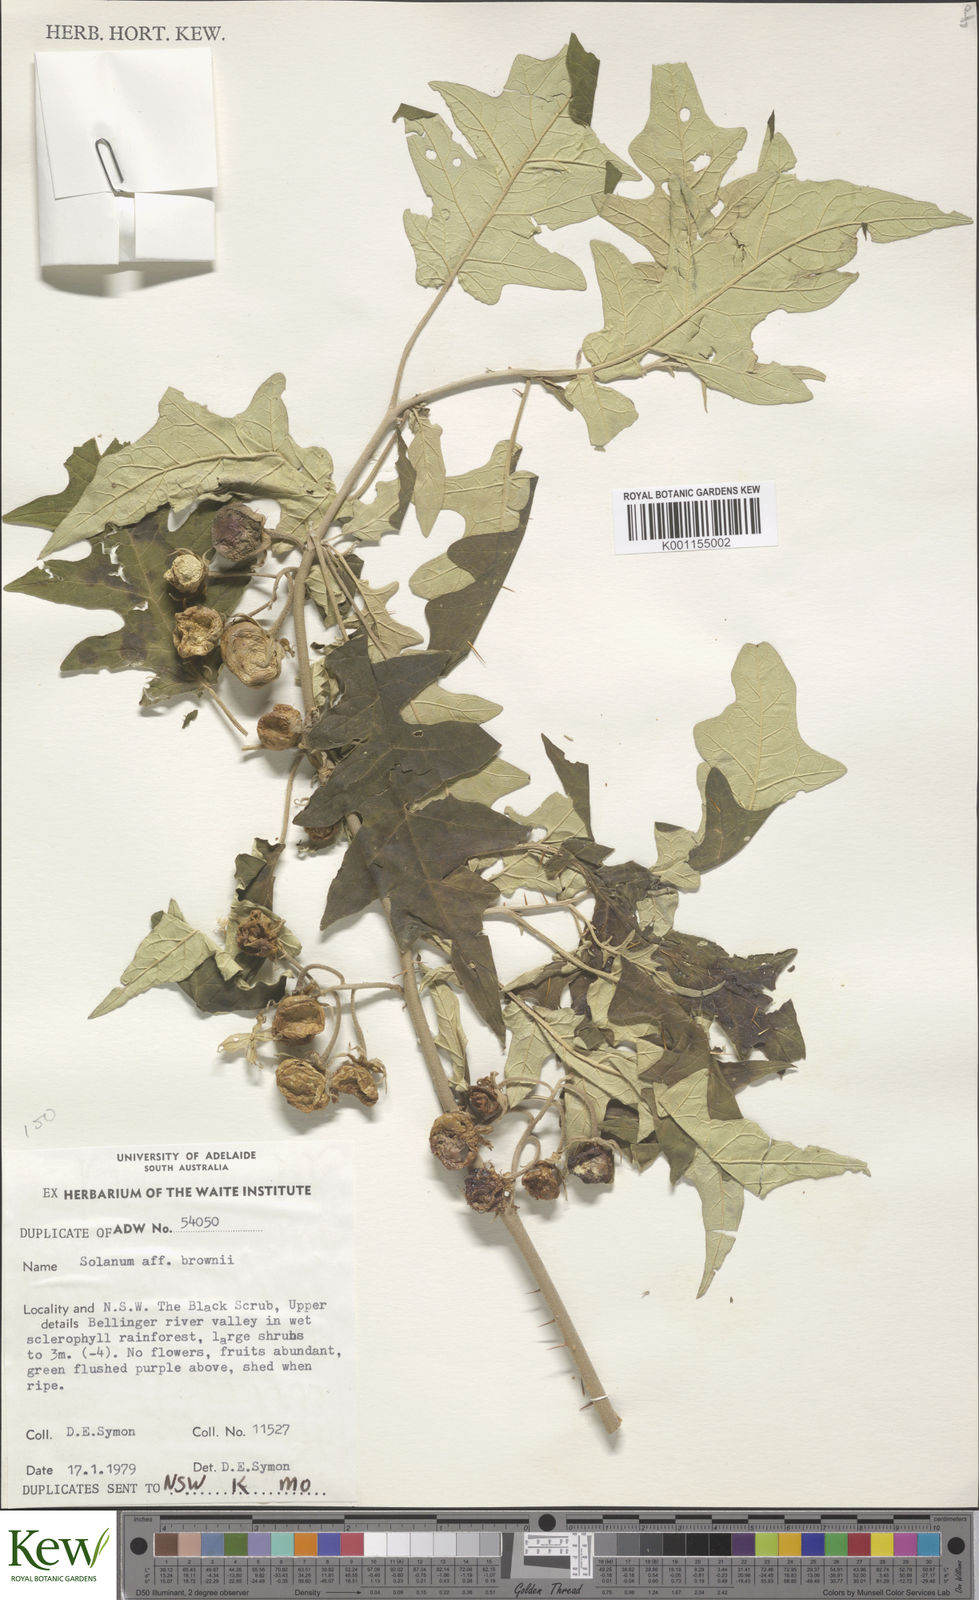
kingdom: Plantae
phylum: Tracheophyta
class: Magnoliopsida
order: Solanales
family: Solanaceae
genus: Solanum
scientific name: Solanum brownii
